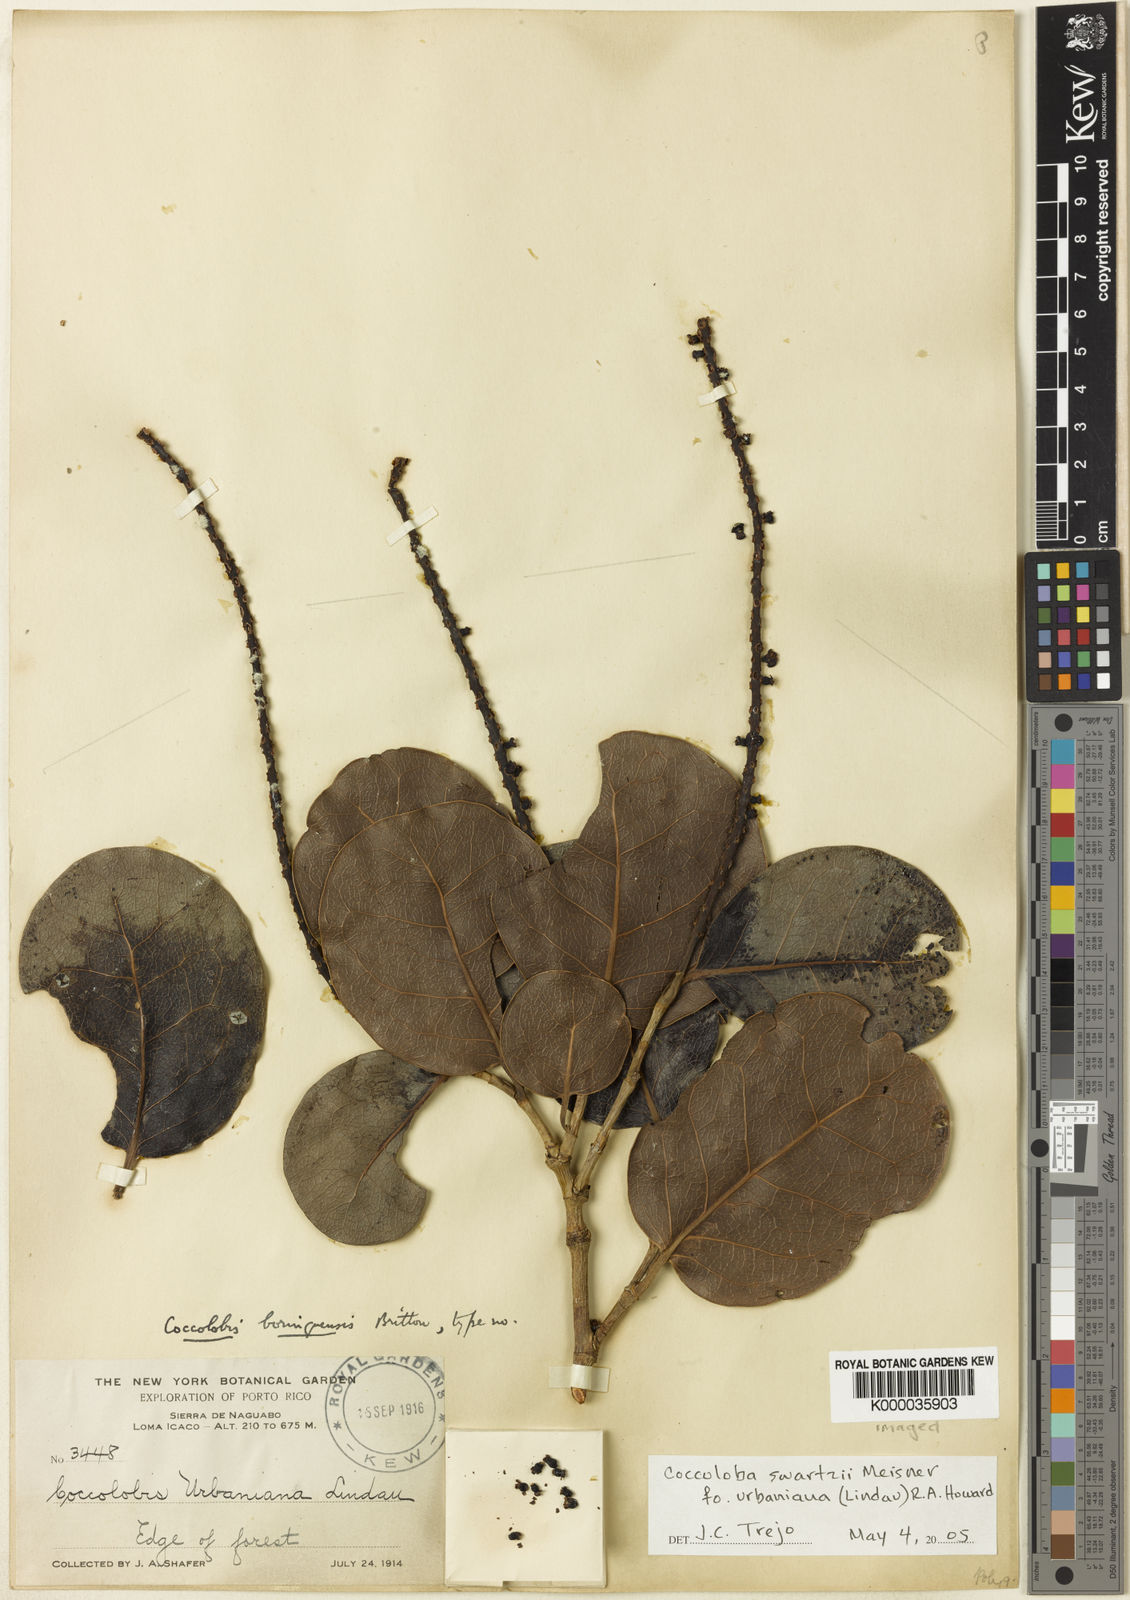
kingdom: Plantae
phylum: Tracheophyta
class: Magnoliopsida
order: Caryophyllales
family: Polygonaceae
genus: Coccoloba
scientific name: Coccoloba swartzii
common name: Red wood
